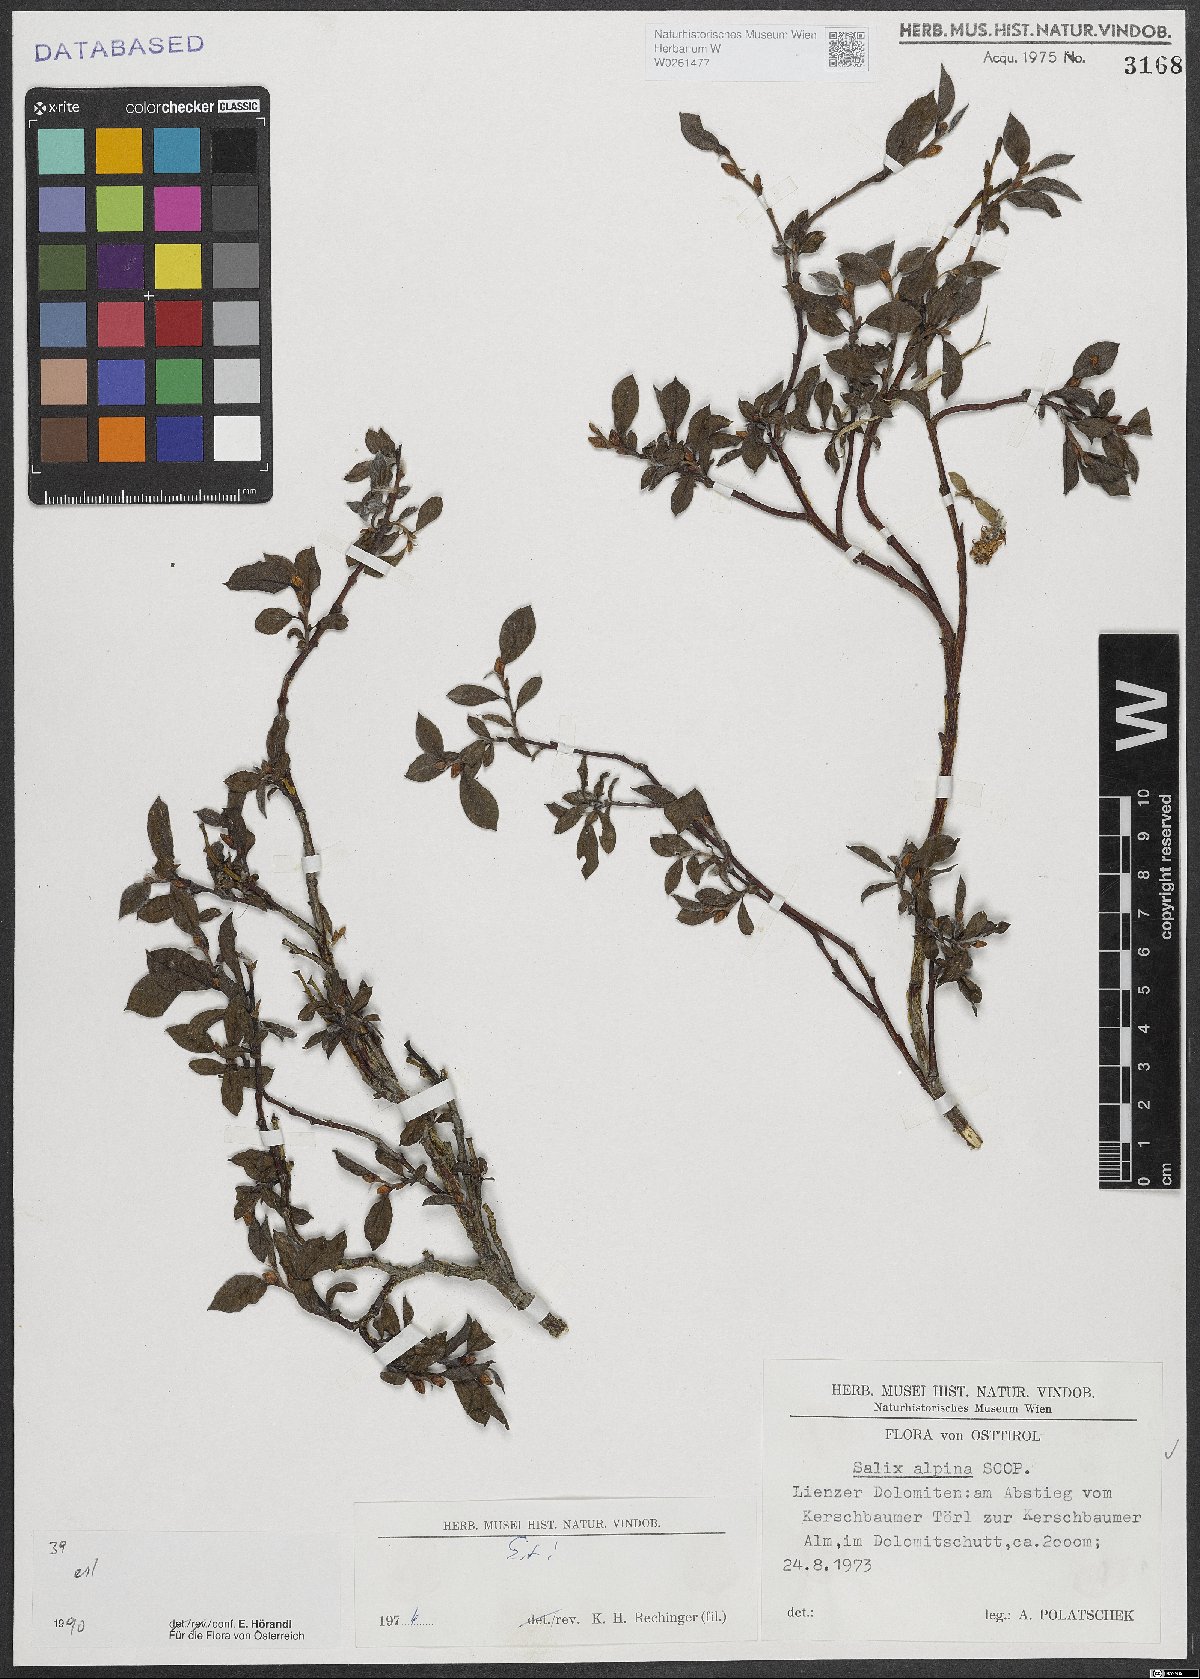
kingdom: Plantae
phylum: Tracheophyta
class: Magnoliopsida
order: Malpighiales
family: Salicaceae
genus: Salix
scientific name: Salix alpina
